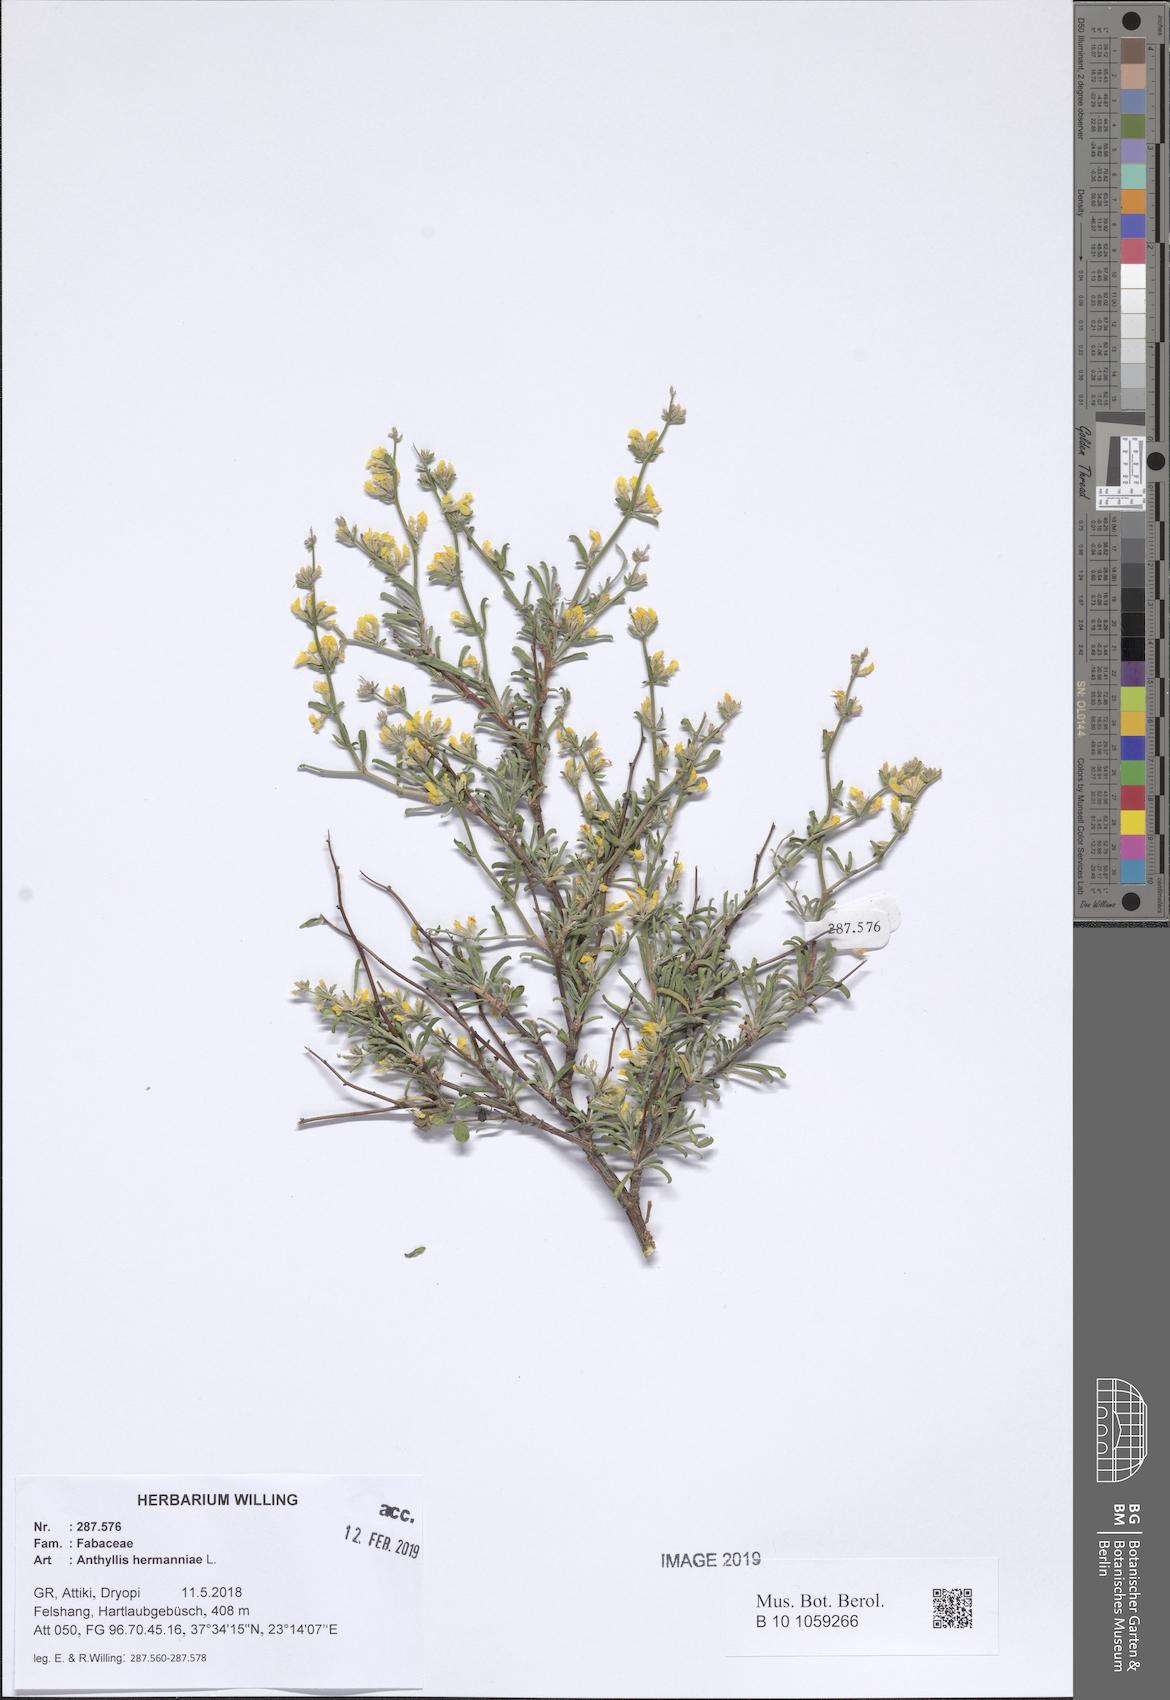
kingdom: Plantae
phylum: Tracheophyta
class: Magnoliopsida
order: Fabales
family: Fabaceae
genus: Anthyllis
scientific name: Anthyllis hermanniae
